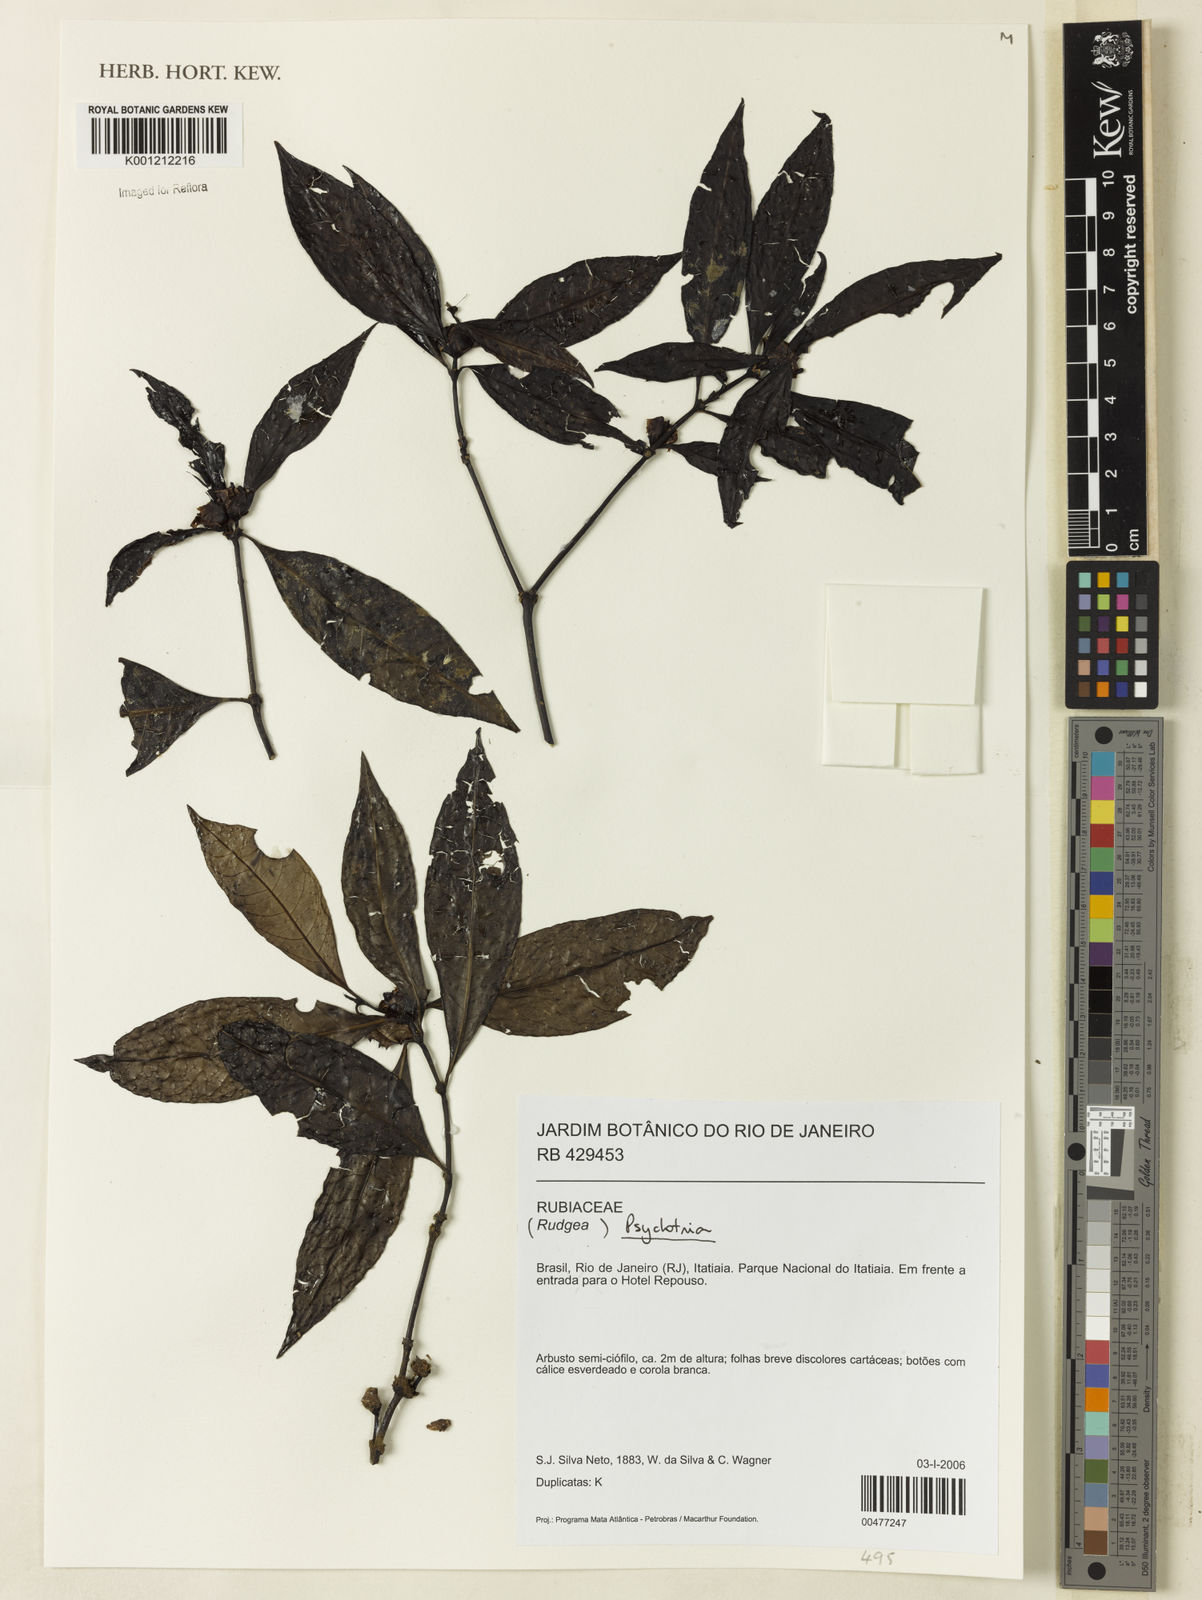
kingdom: Plantae
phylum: Tracheophyta
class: Magnoliopsida
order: Gentianales
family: Rubiaceae
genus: Psychotria
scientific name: Psychotria
